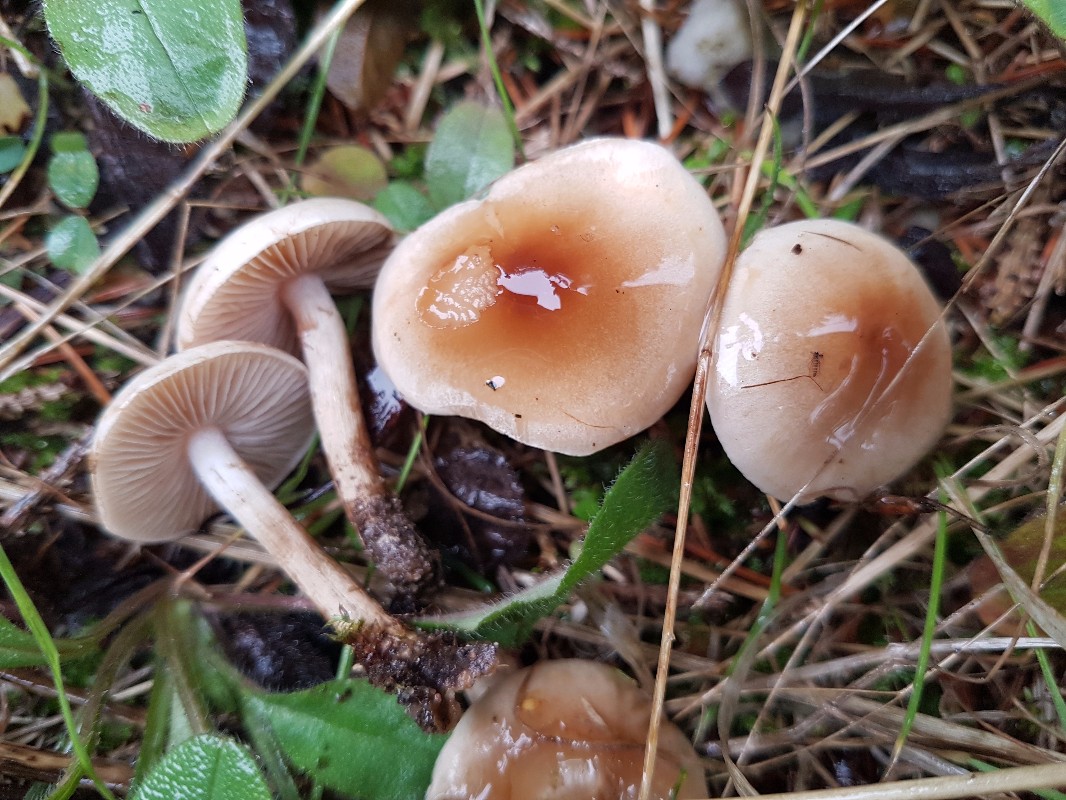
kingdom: Fungi
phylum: Basidiomycota
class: Agaricomycetes
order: Agaricales
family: Hymenogastraceae
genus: Hebeloma
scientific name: Hebeloma mesophaeum
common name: lerbrun tåreblad
